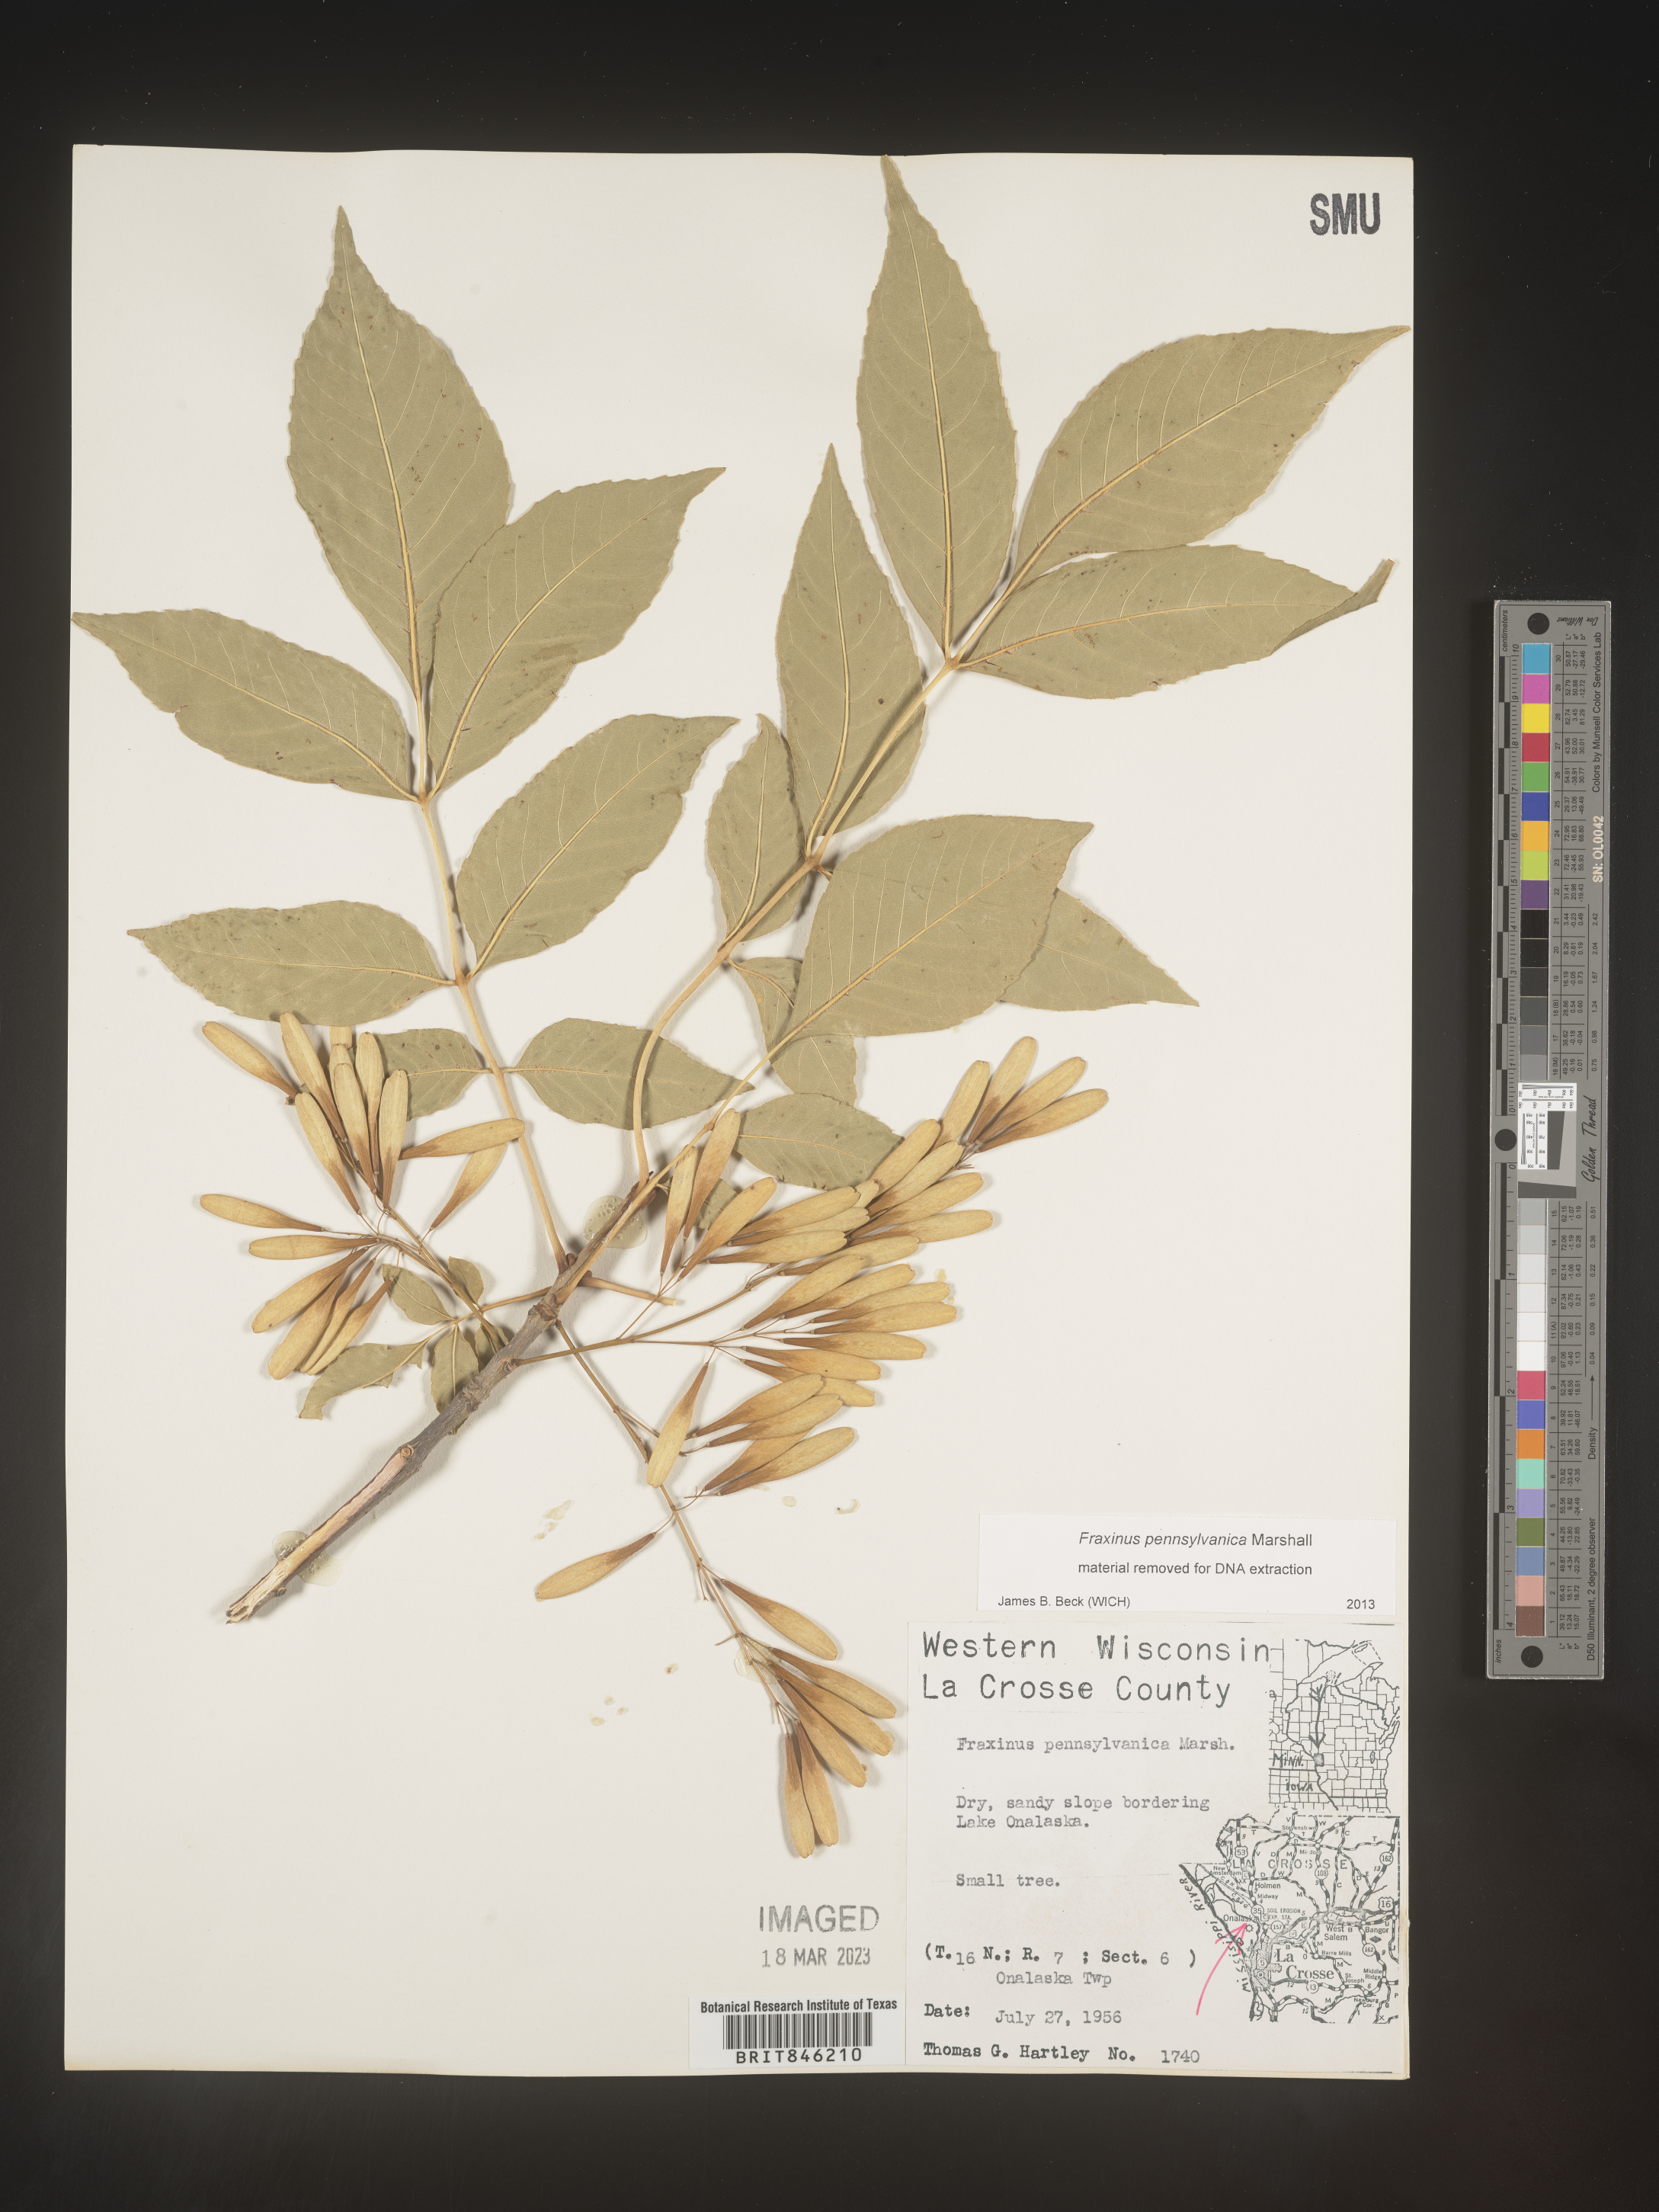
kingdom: Plantae
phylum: Tracheophyta
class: Magnoliopsida
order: Lamiales
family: Oleaceae
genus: Fraxinus
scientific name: Fraxinus pennsylvanica
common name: Green ash
